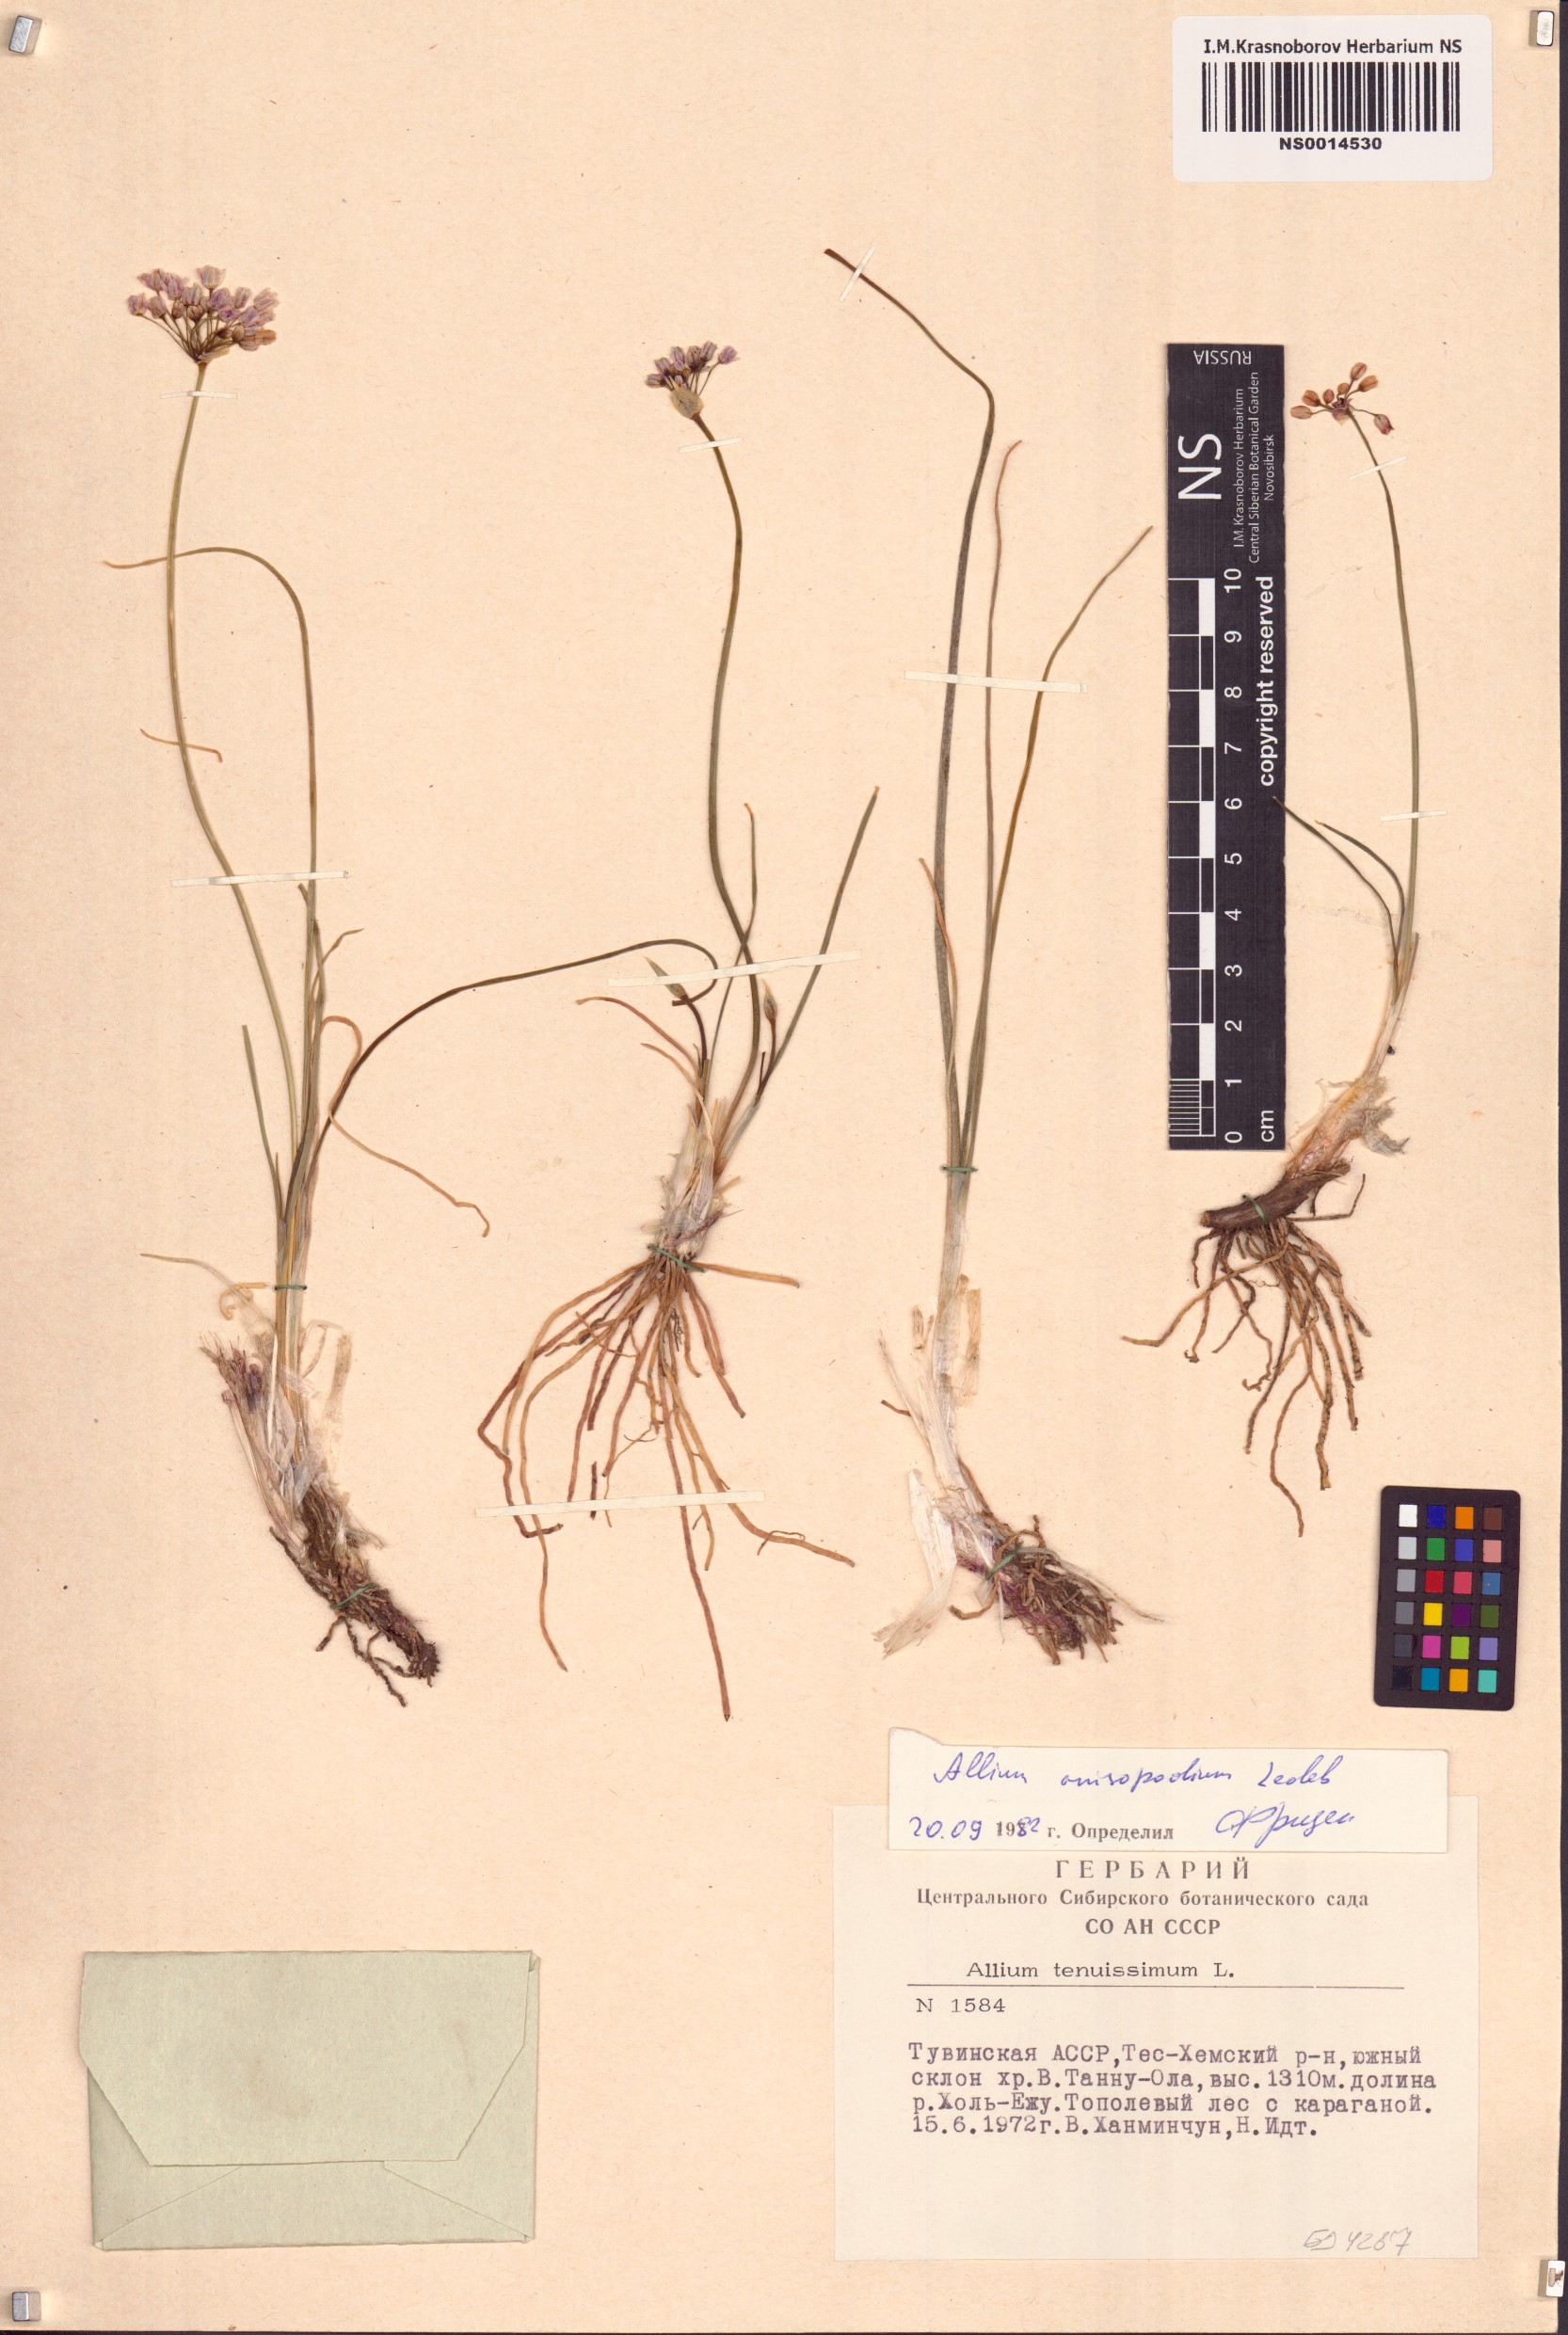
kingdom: Plantae
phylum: Tracheophyta
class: Liliopsida
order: Asparagales
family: Amaryllidaceae
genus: Allium
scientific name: Allium anisopodium
